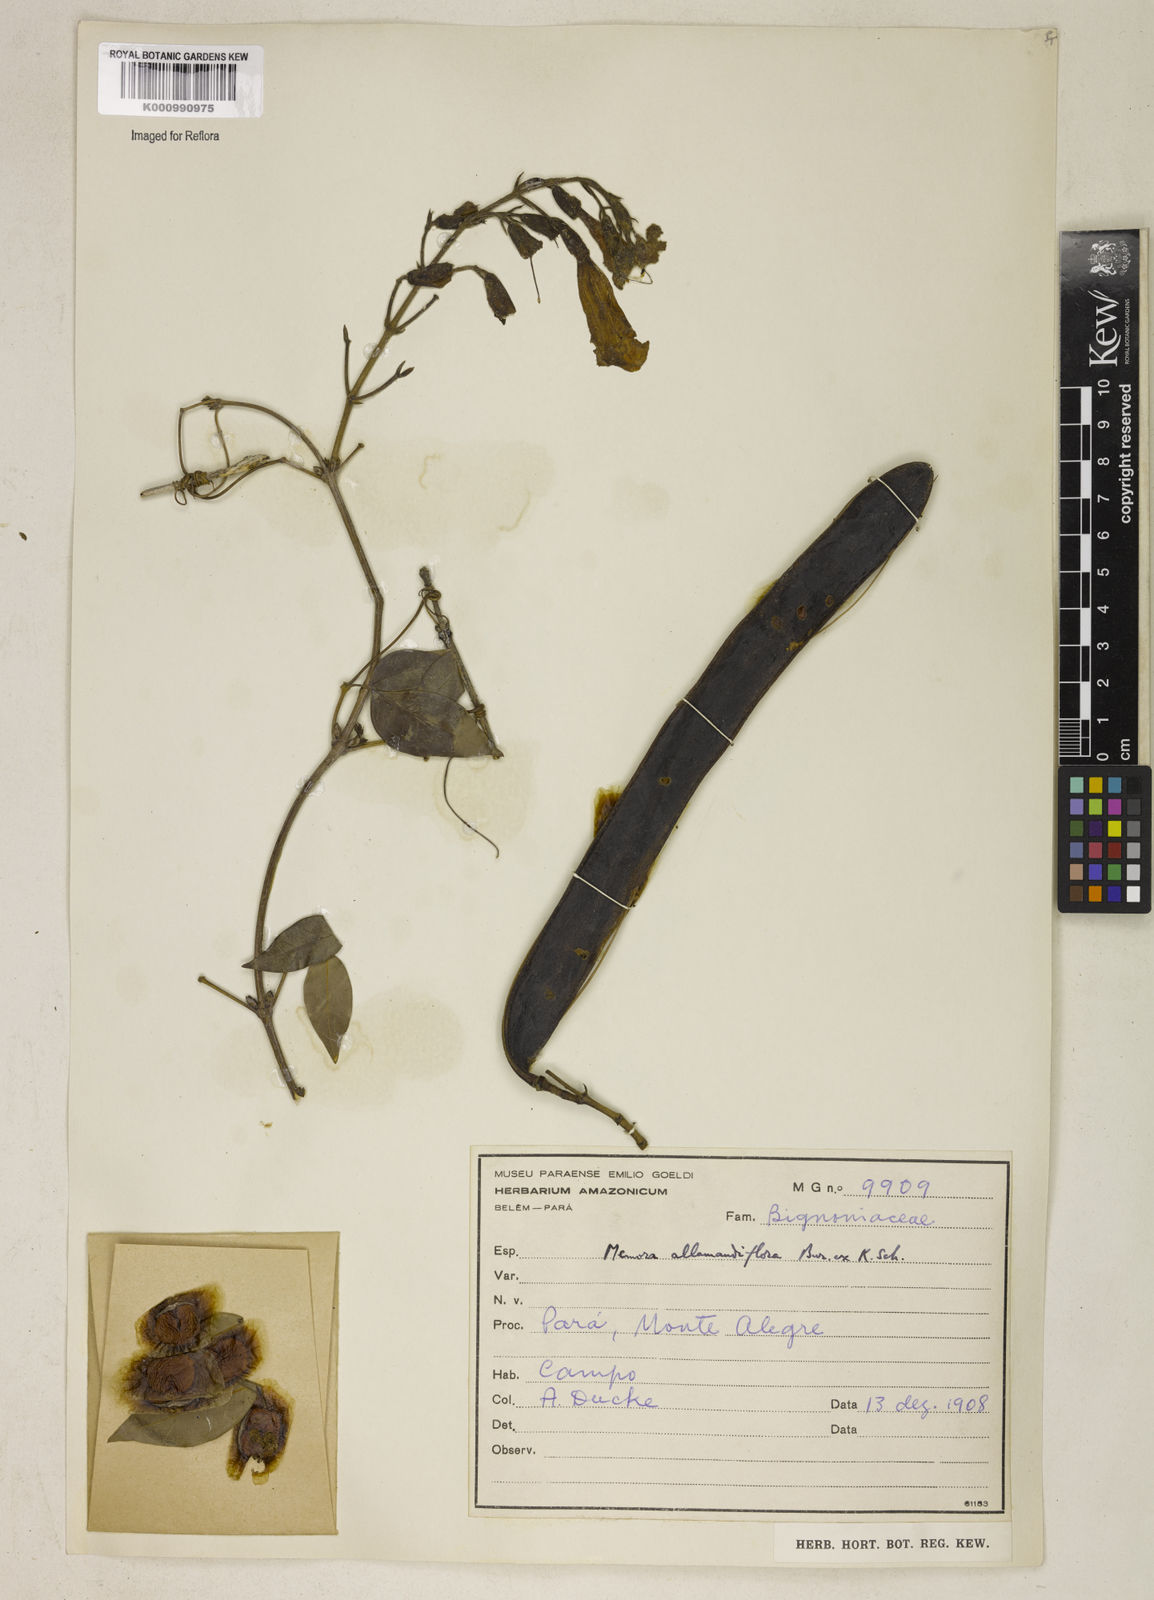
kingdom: Plantae
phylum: Tracheophyta
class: Magnoliopsida
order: Lamiales
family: Bignoniaceae
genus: Adenocalymma
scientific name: Adenocalymma
